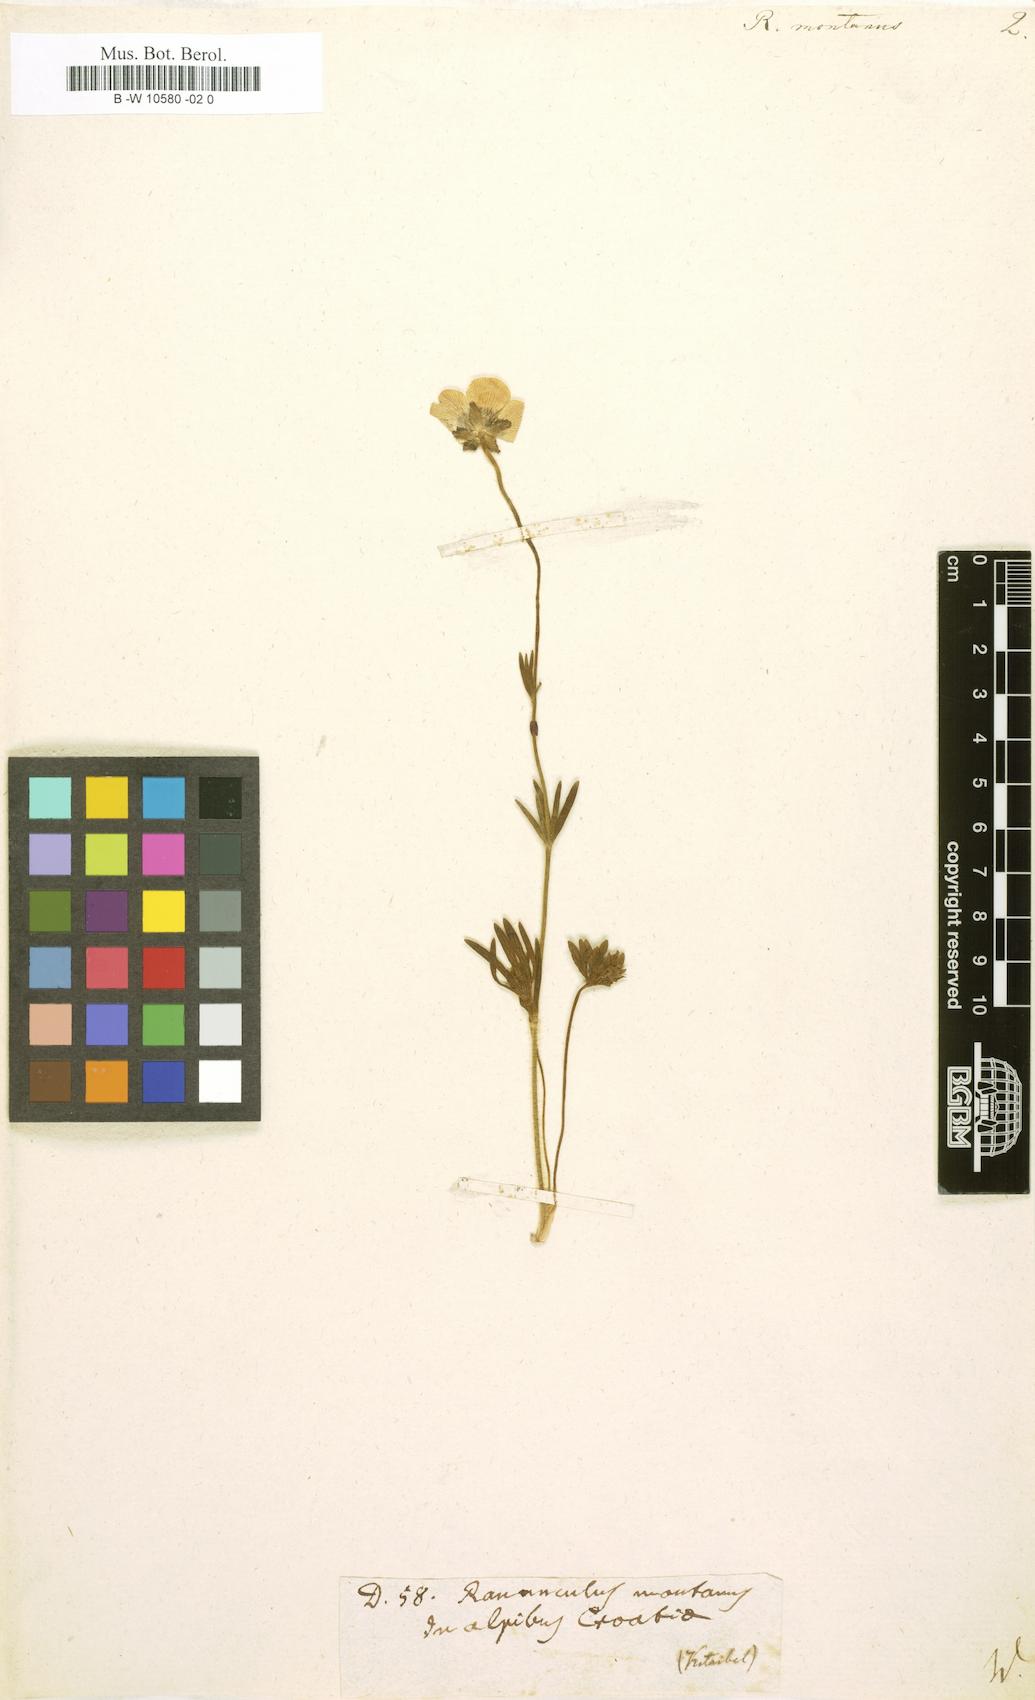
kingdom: Plantae
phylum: Tracheophyta
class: Magnoliopsida
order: Ranunculales
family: Ranunculaceae
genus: Ranunculus
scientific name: Ranunculus montanus
